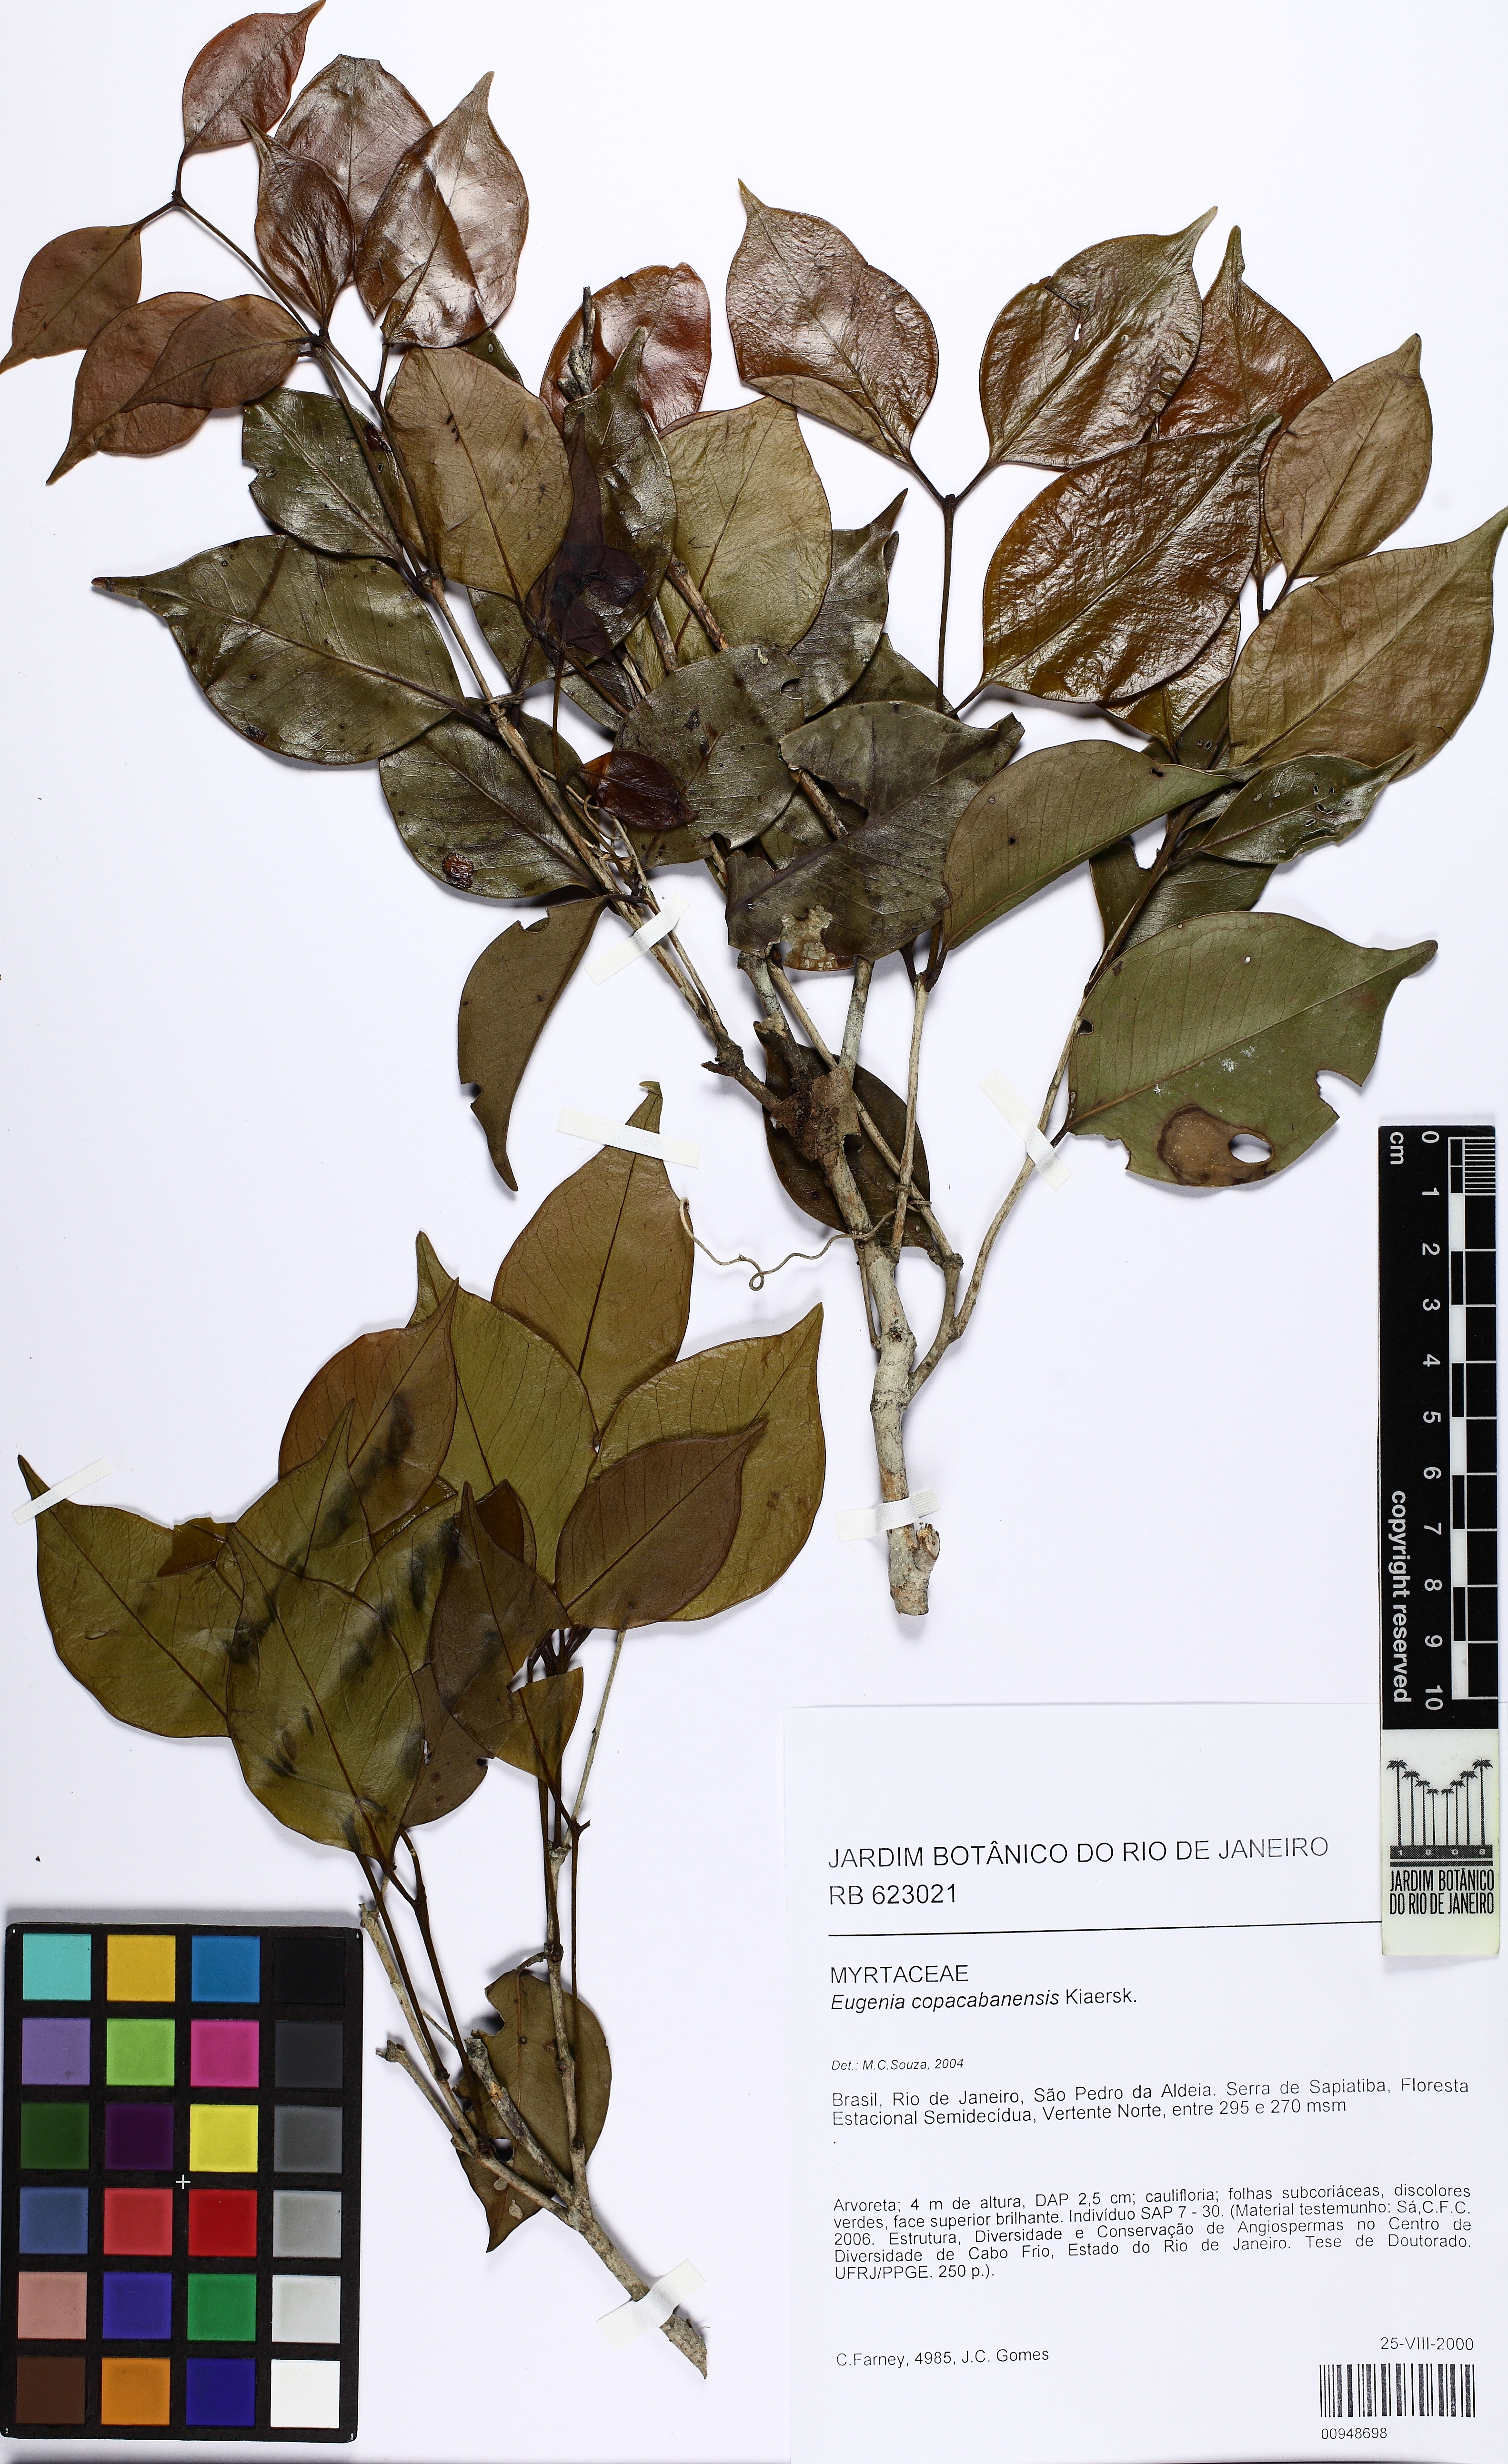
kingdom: Plantae
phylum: Tracheophyta
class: Magnoliopsida
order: Myrtales
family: Myrtaceae
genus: Eugenia
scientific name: Eugenia copacabanensis
